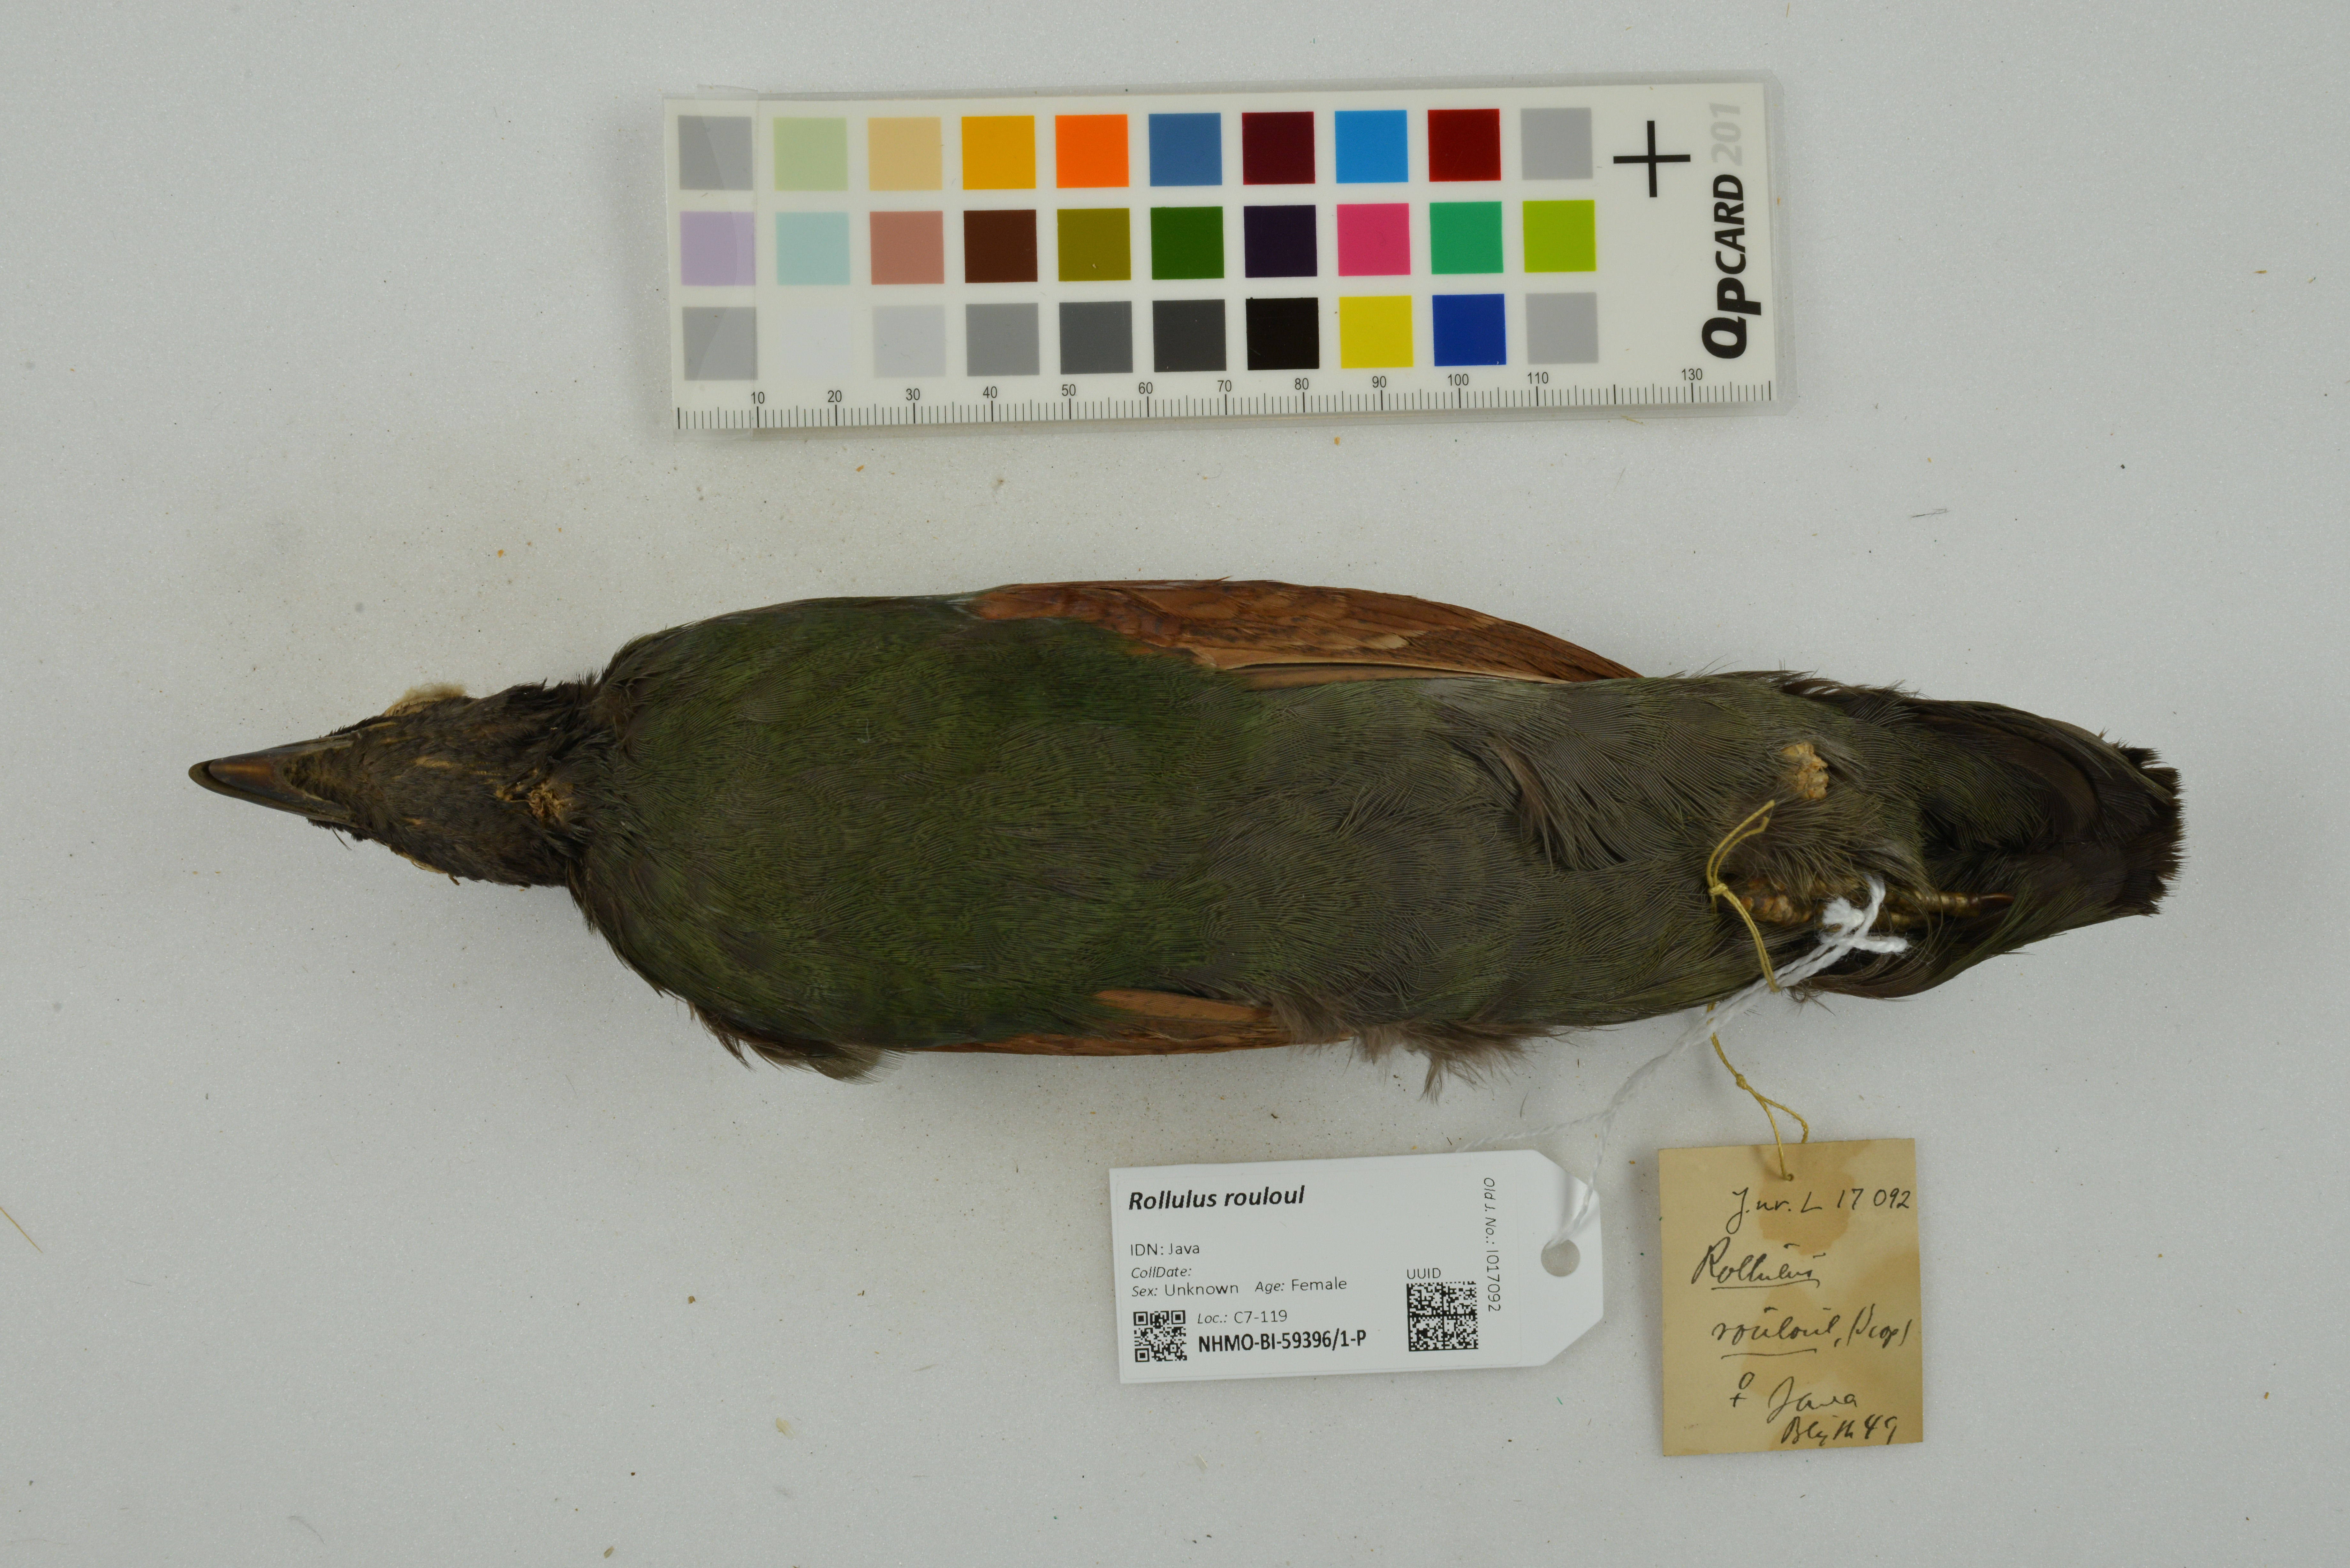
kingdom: Animalia
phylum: Chordata
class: Aves
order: Galliformes
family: Phasianidae
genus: Rollulus
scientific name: Rollulus rouloul
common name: Crested partridge
